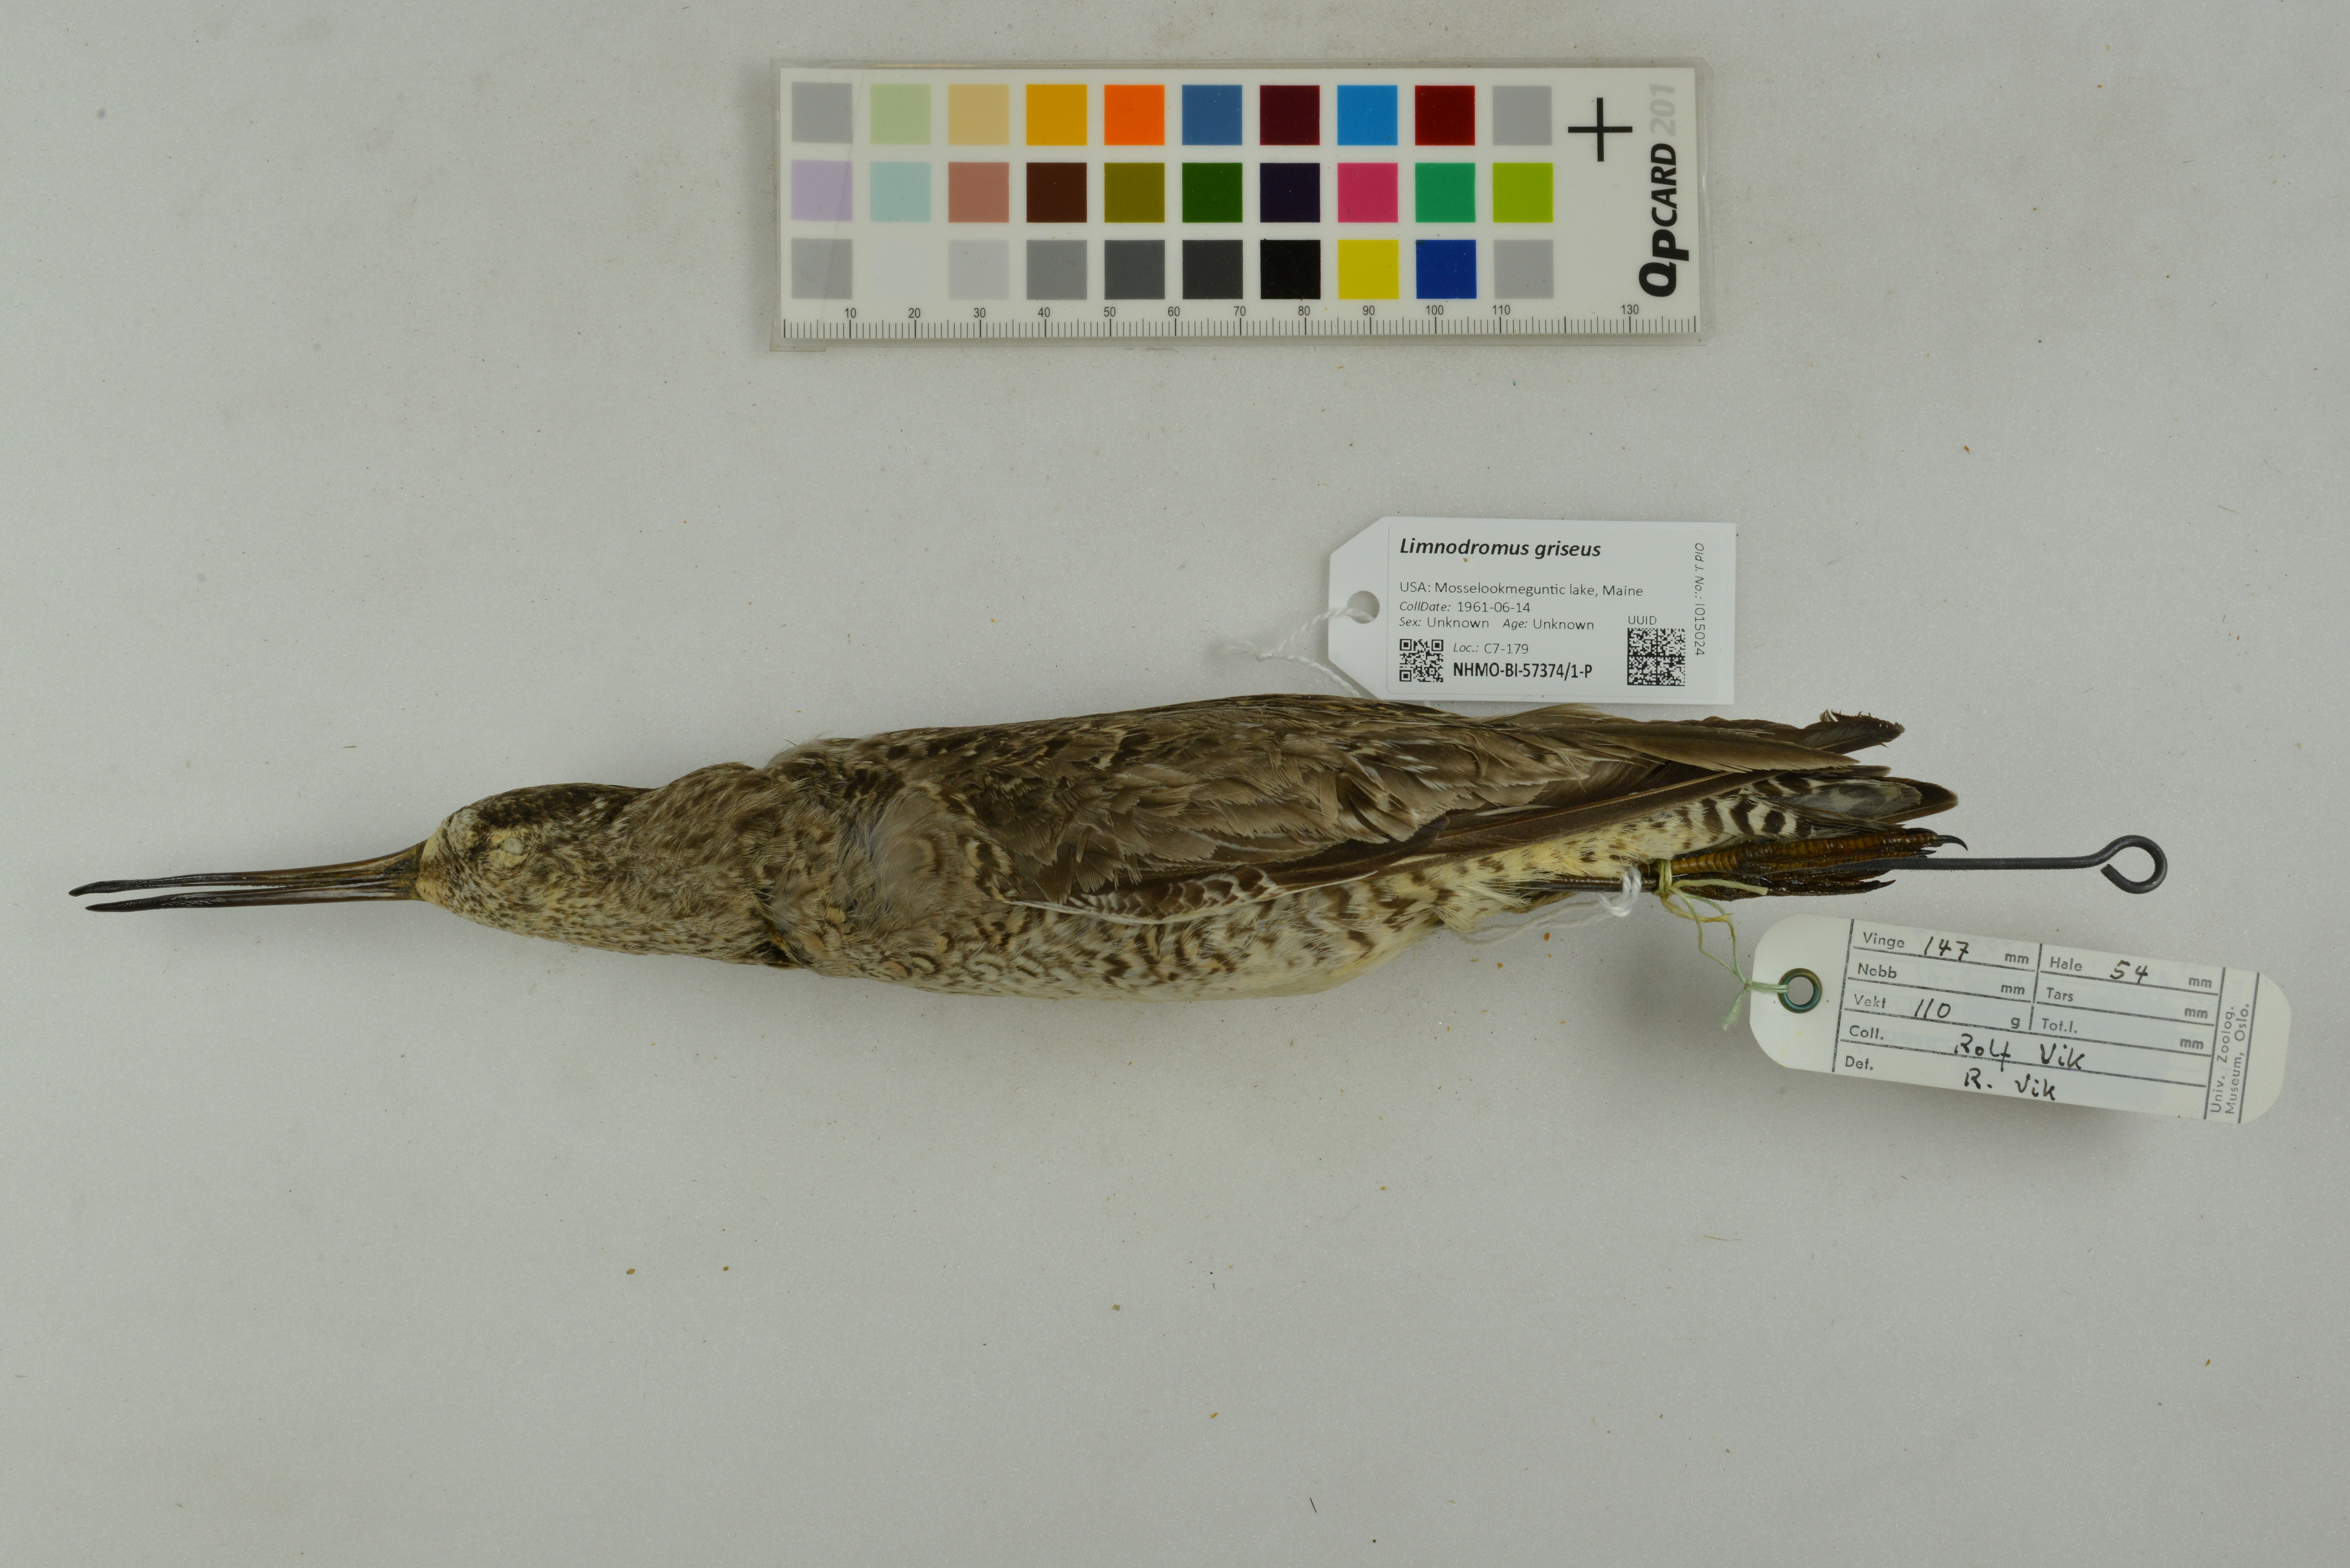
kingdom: Animalia
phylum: Chordata
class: Aves
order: Charadriiformes
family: Scolopacidae
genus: Limnodromus
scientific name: Limnodromus griseus
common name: Short-billed dowitcher
